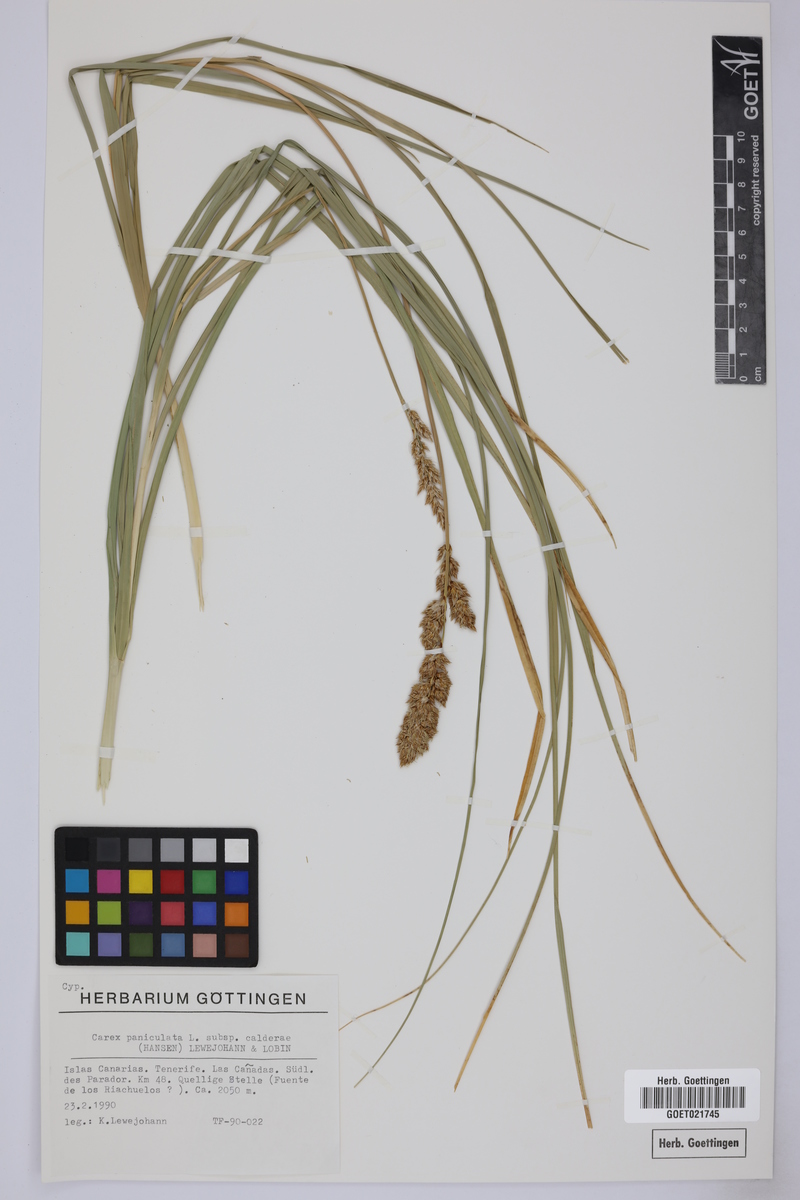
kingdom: Plantae
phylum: Tracheophyta
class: Liliopsida
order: Poales
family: Cyperaceae
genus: Carex
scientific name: Carex paniculata
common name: Greater tussock-sedge
